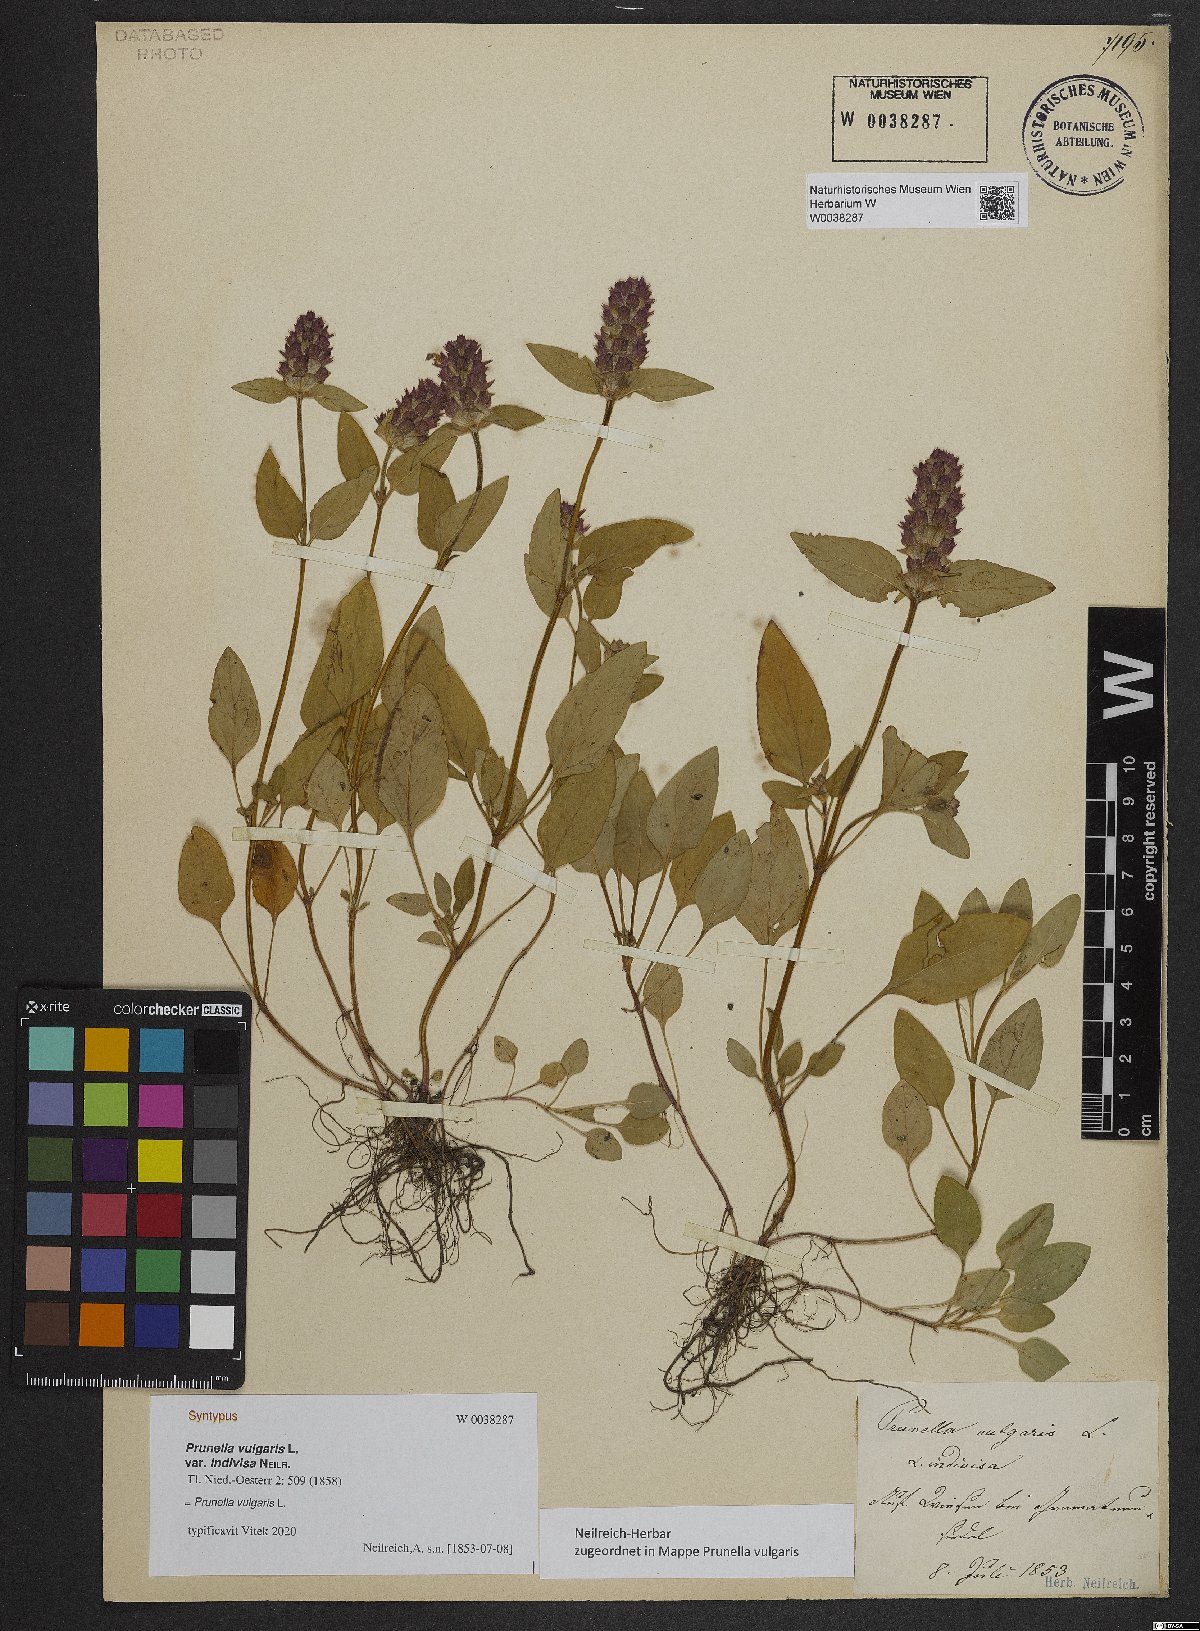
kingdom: Plantae
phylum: Tracheophyta
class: Magnoliopsida
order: Lamiales
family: Lamiaceae
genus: Prunella
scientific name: Prunella vulgaris
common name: Heal-all
